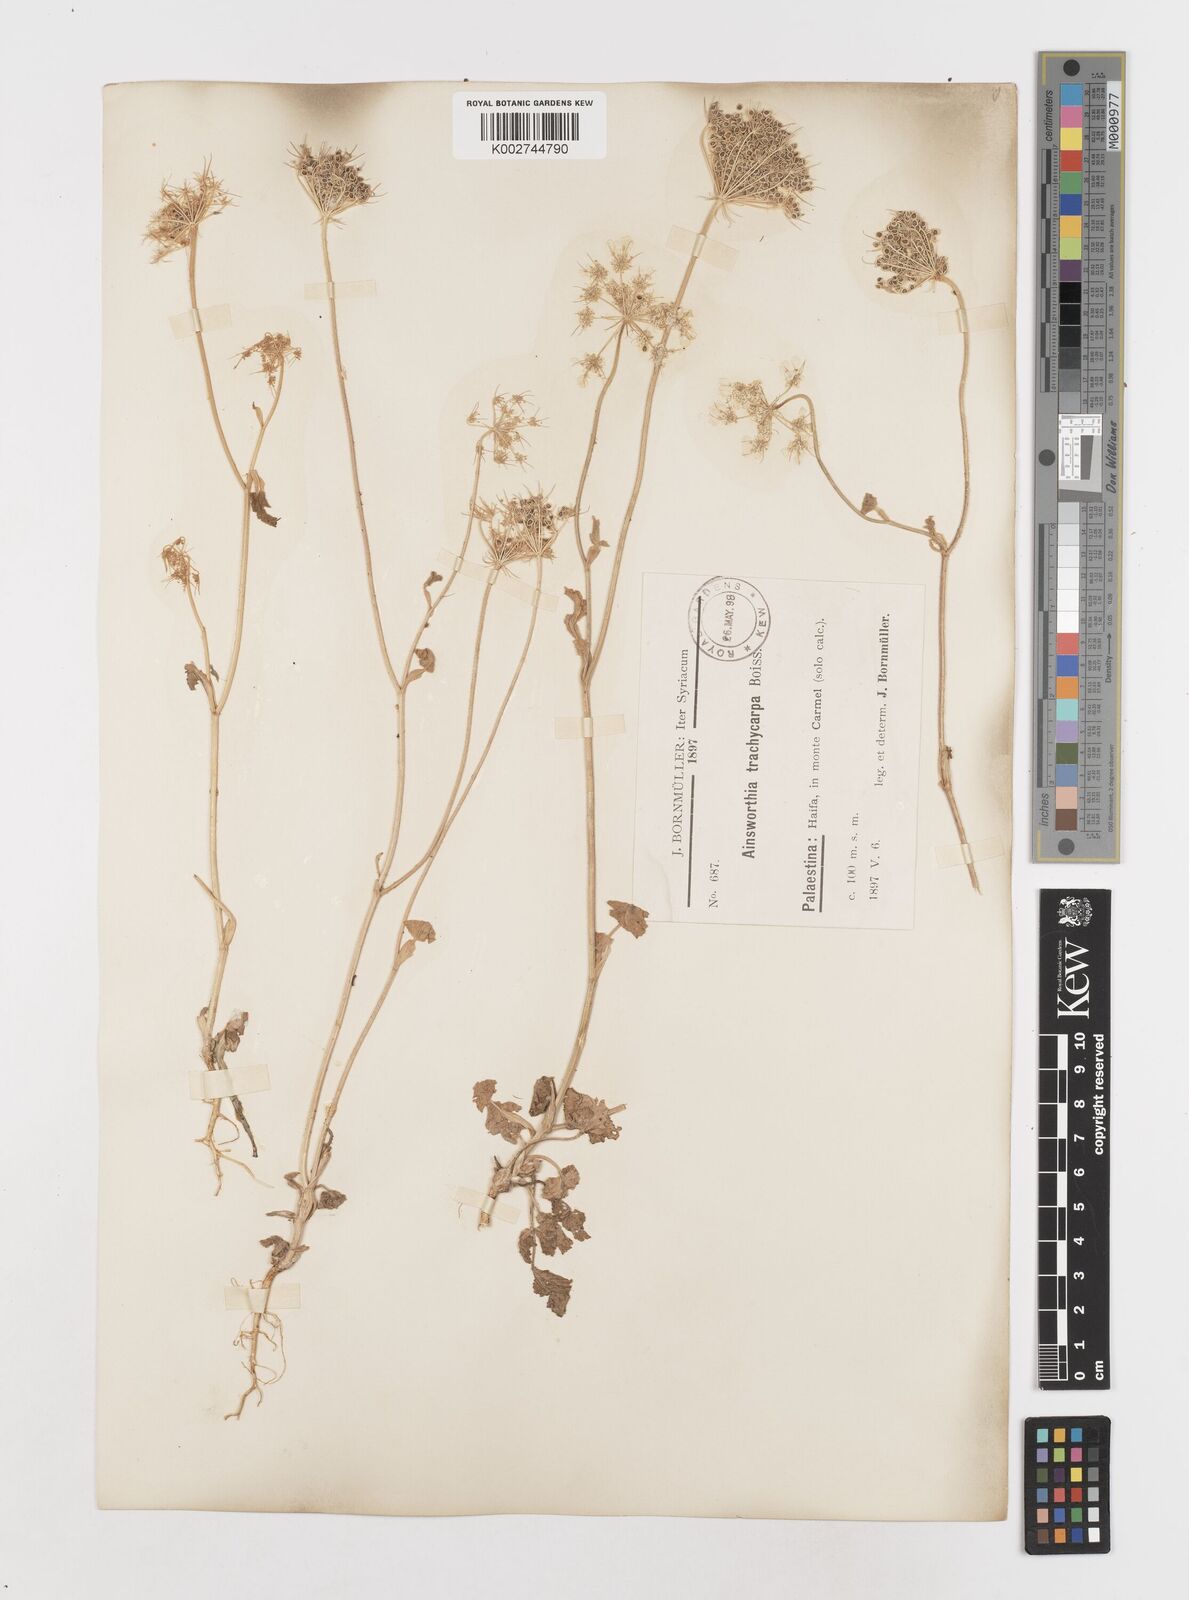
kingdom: Plantae
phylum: Tracheophyta
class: Magnoliopsida
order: Apiales
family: Apiaceae
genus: Ainsworthia
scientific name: Ainsworthia trachycarpa
